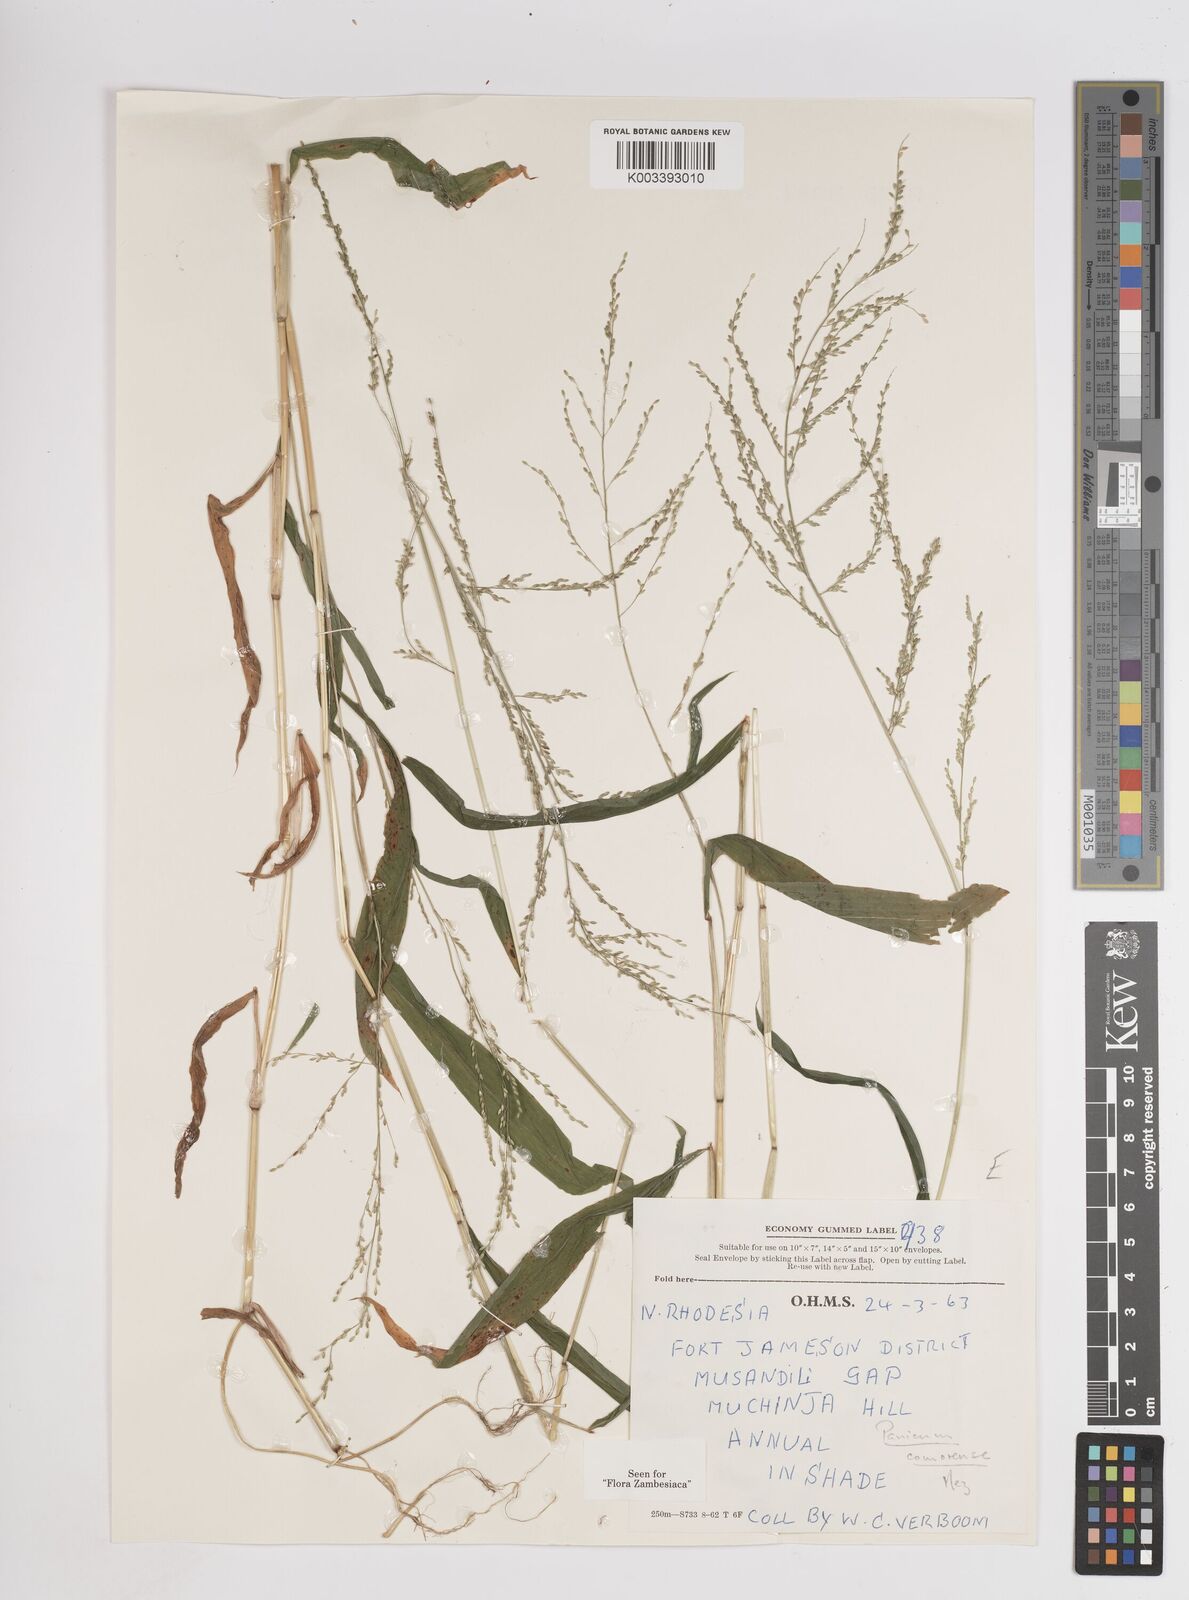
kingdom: Plantae
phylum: Tracheophyta
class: Liliopsida
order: Poales
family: Poaceae
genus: Panicum
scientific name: Panicum comorense
